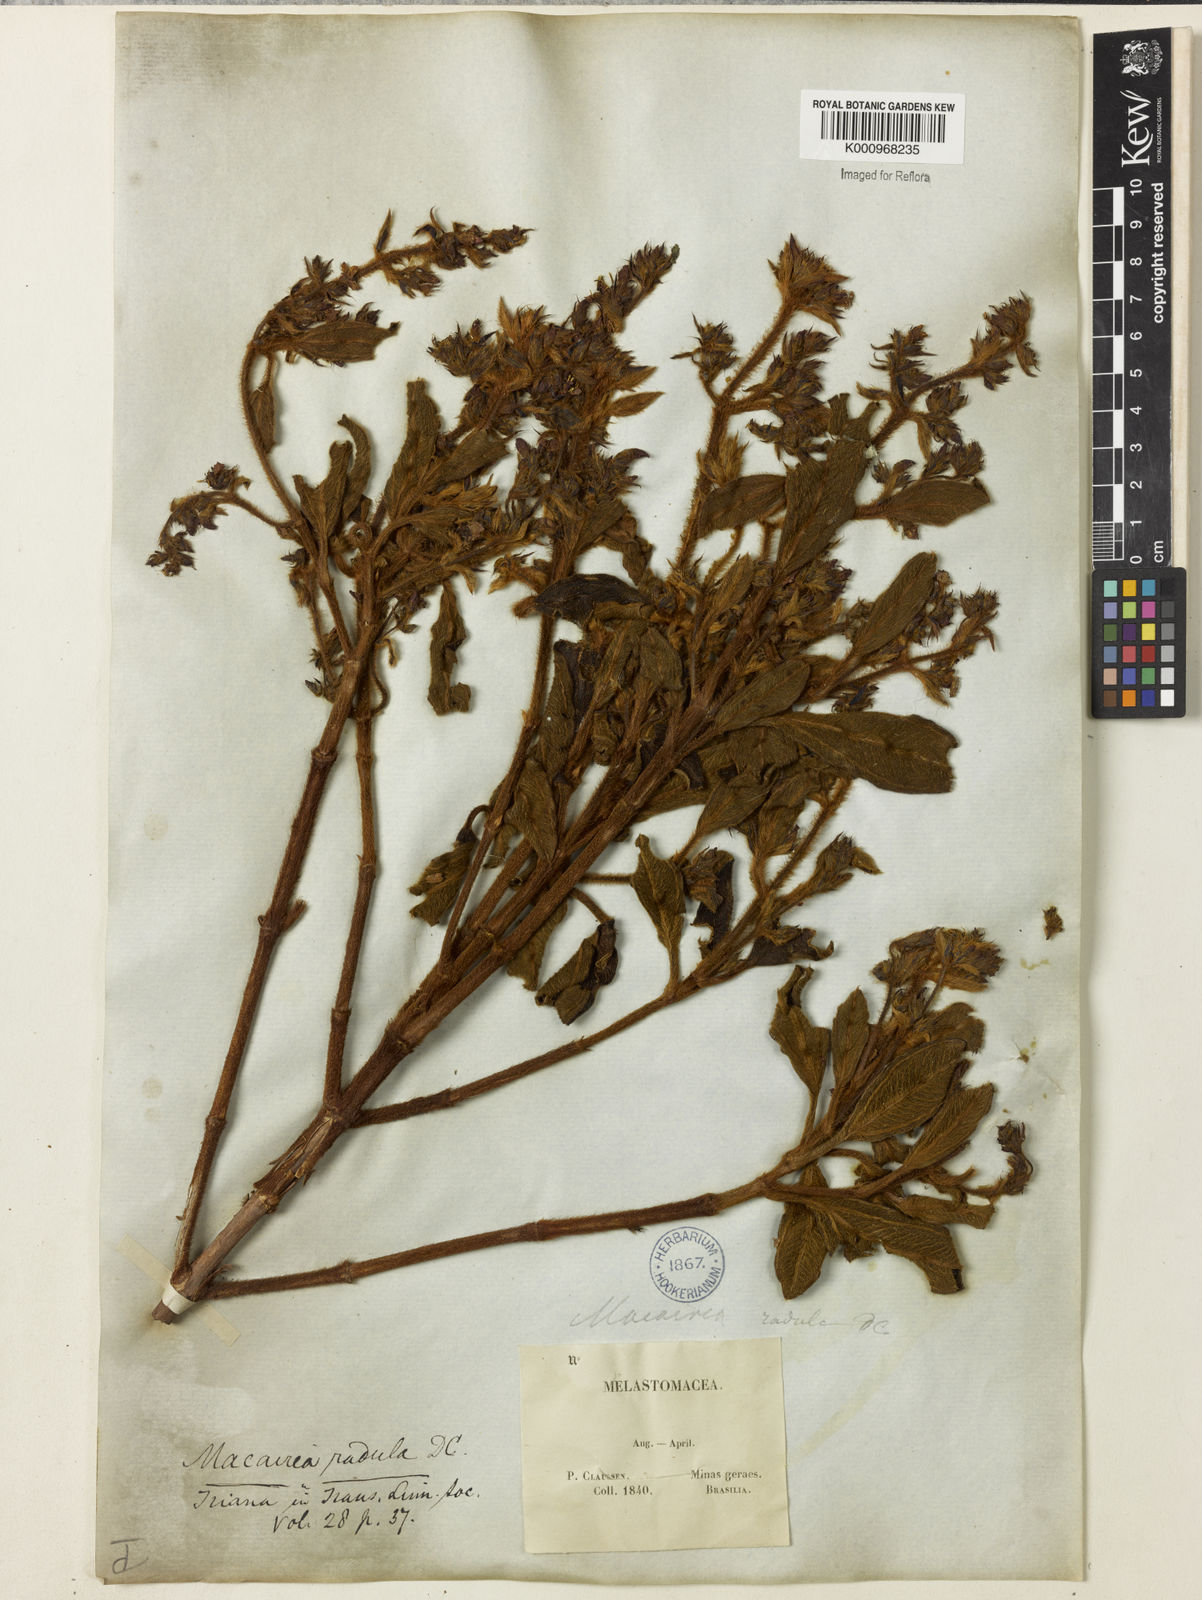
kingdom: Plantae
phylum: Tracheophyta
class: Magnoliopsida
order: Myrtales
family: Melastomataceae
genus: Macairea
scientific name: Macairea radula
